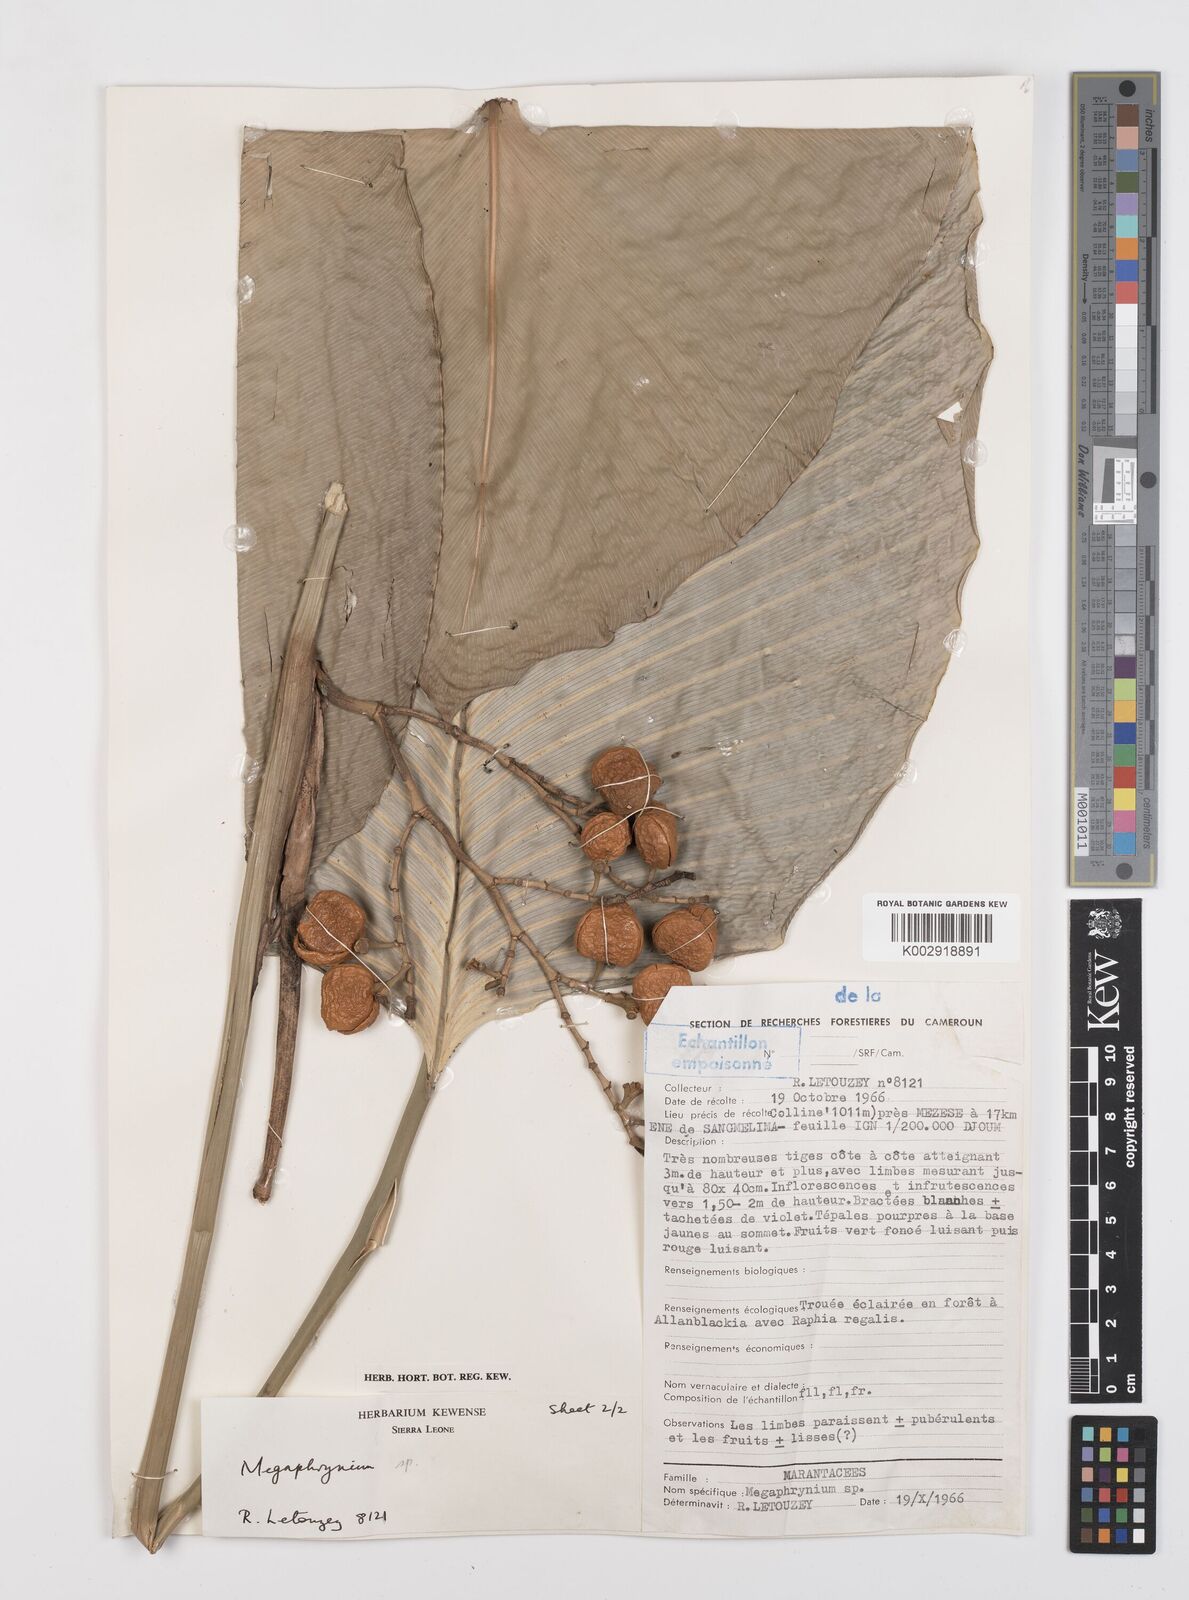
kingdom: Plantae
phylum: Tracheophyta
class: Liliopsida
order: Zingiberales
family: Marantaceae
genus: Megaphrynium
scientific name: Megaphrynium distans
